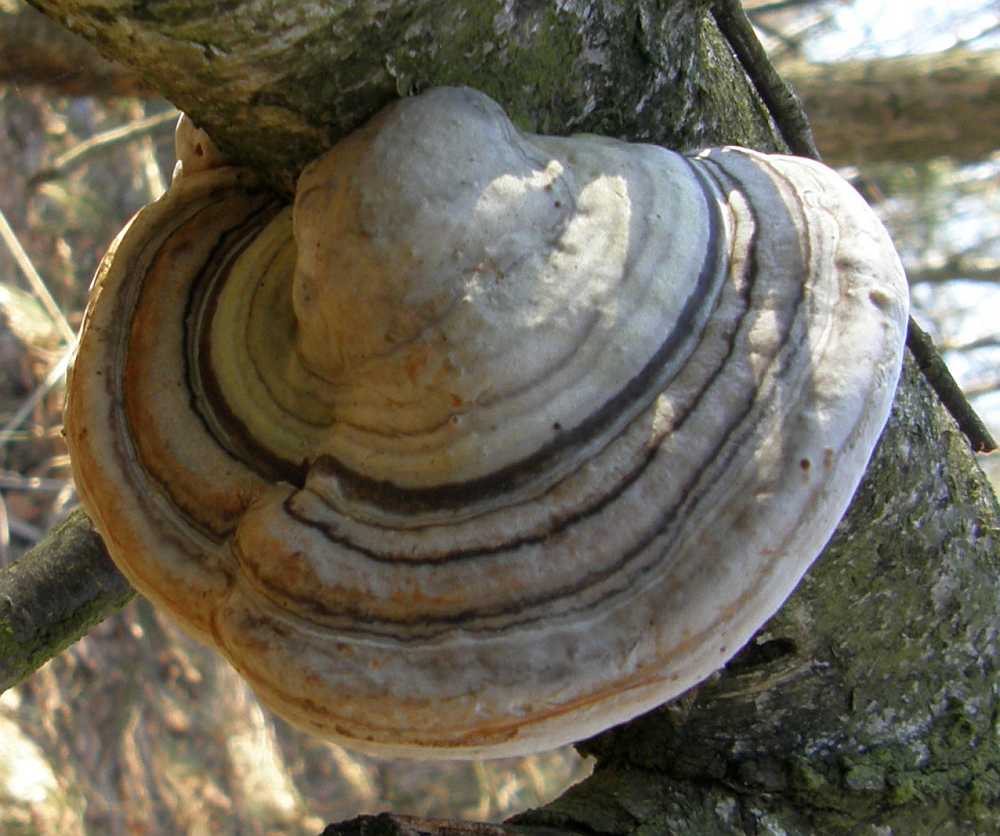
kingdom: Fungi
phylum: Basidiomycota
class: Agaricomycetes
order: Polyporales
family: Polyporaceae
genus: Fomes
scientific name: Fomes fomentarius
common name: tøndersvamp
